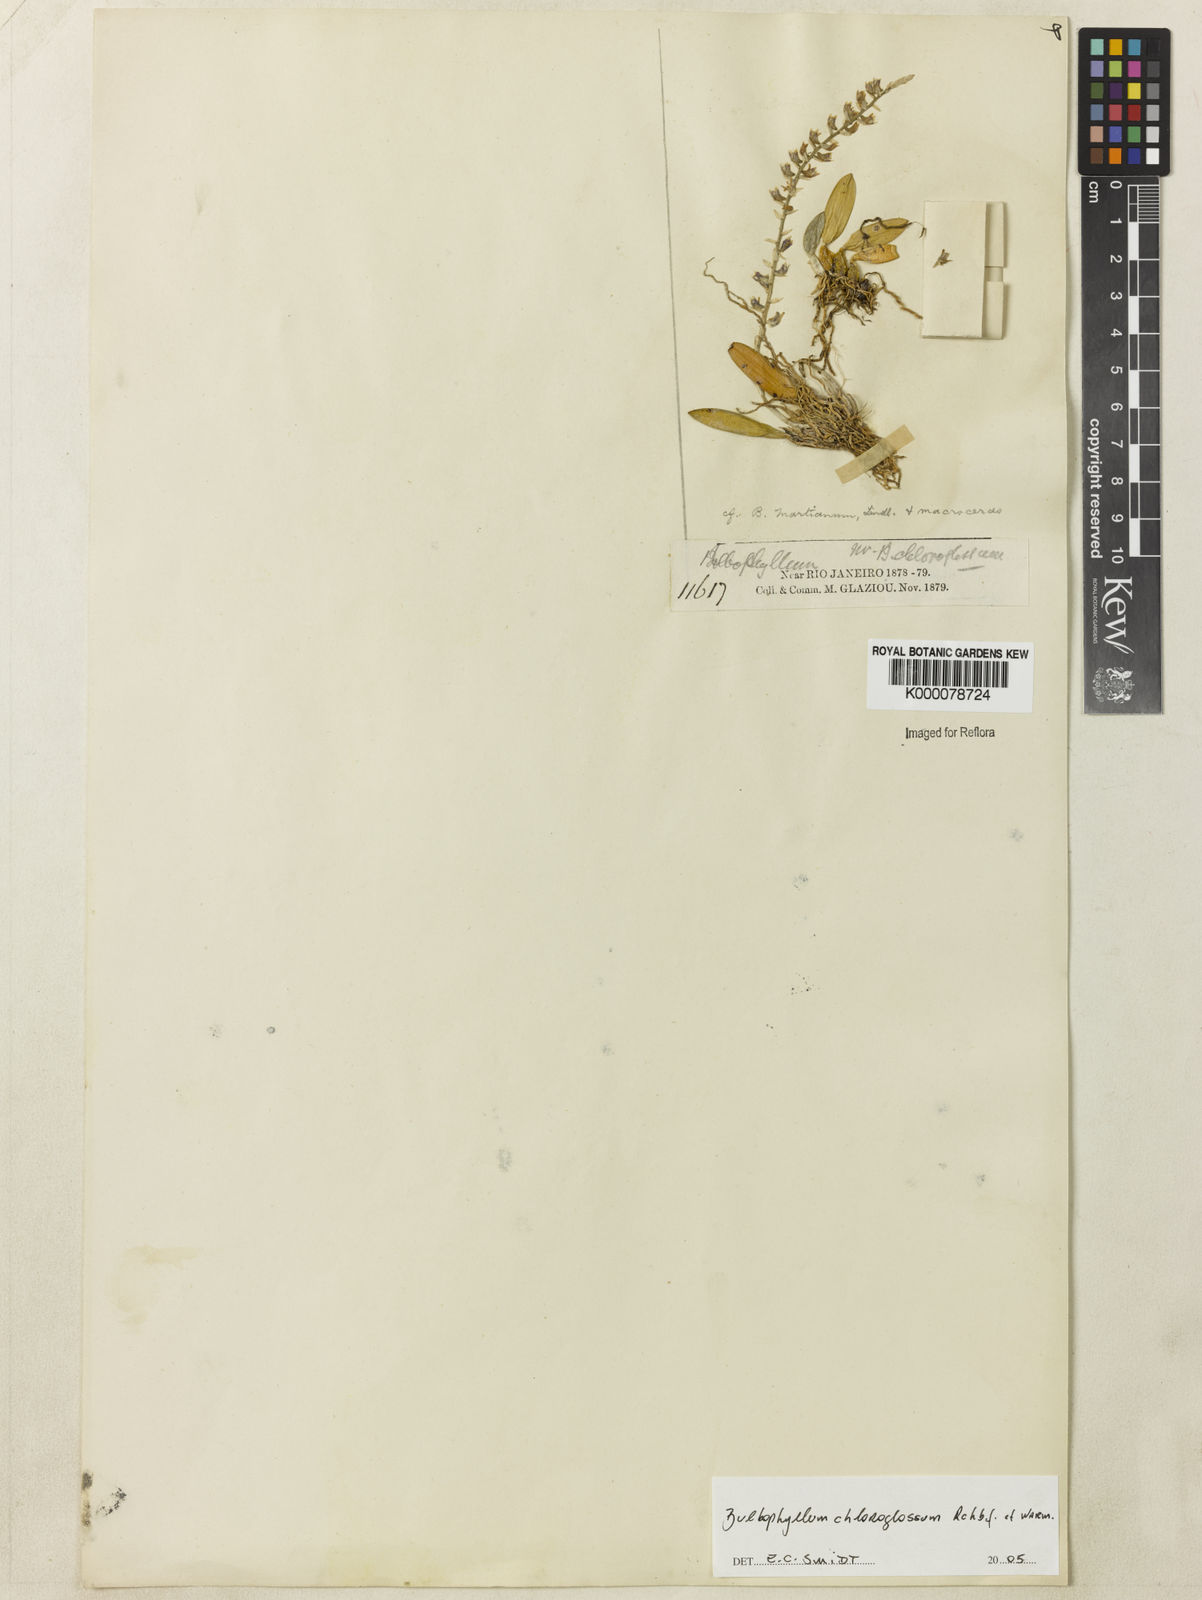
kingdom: Plantae
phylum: Tracheophyta
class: Liliopsida
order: Asparagales
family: Orchidaceae
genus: Bulbophyllum
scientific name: Bulbophyllum
